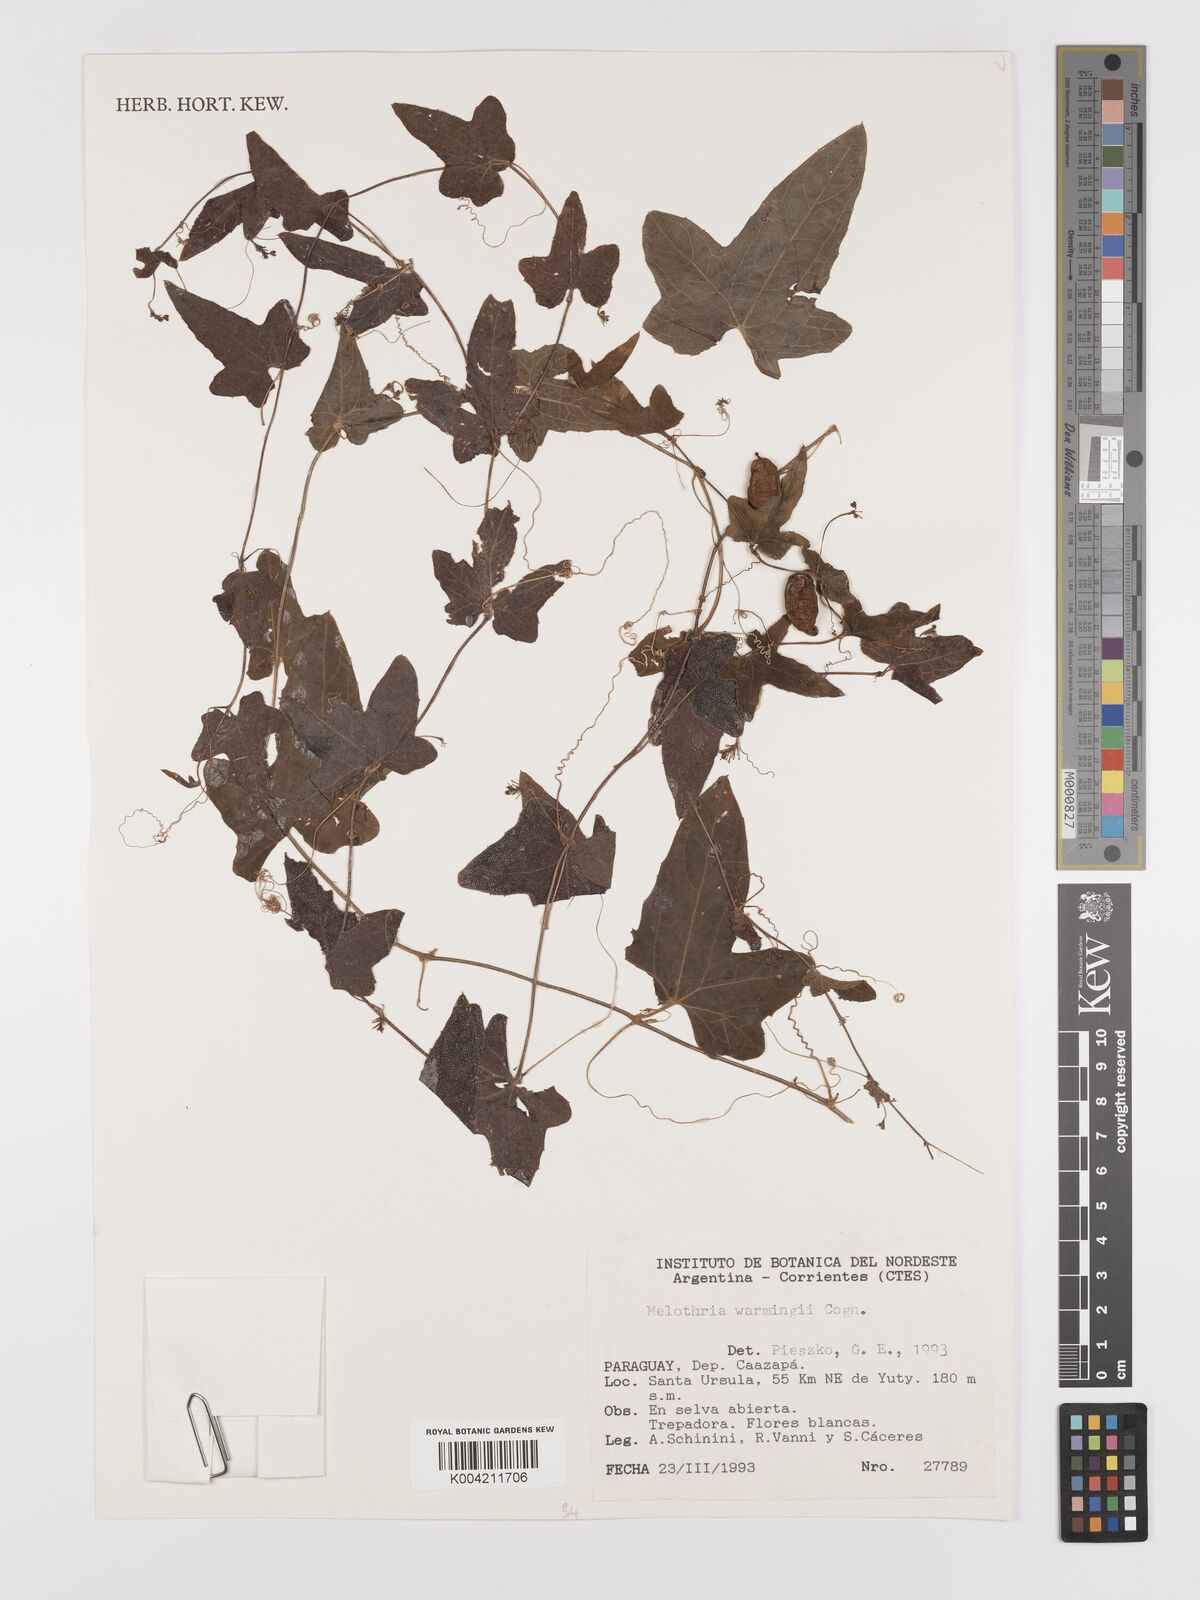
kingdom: Plantae
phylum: Tracheophyta
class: Magnoliopsida
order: Cucurbitales
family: Cucurbitaceae
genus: Melothria
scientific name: Melothria warmingii
